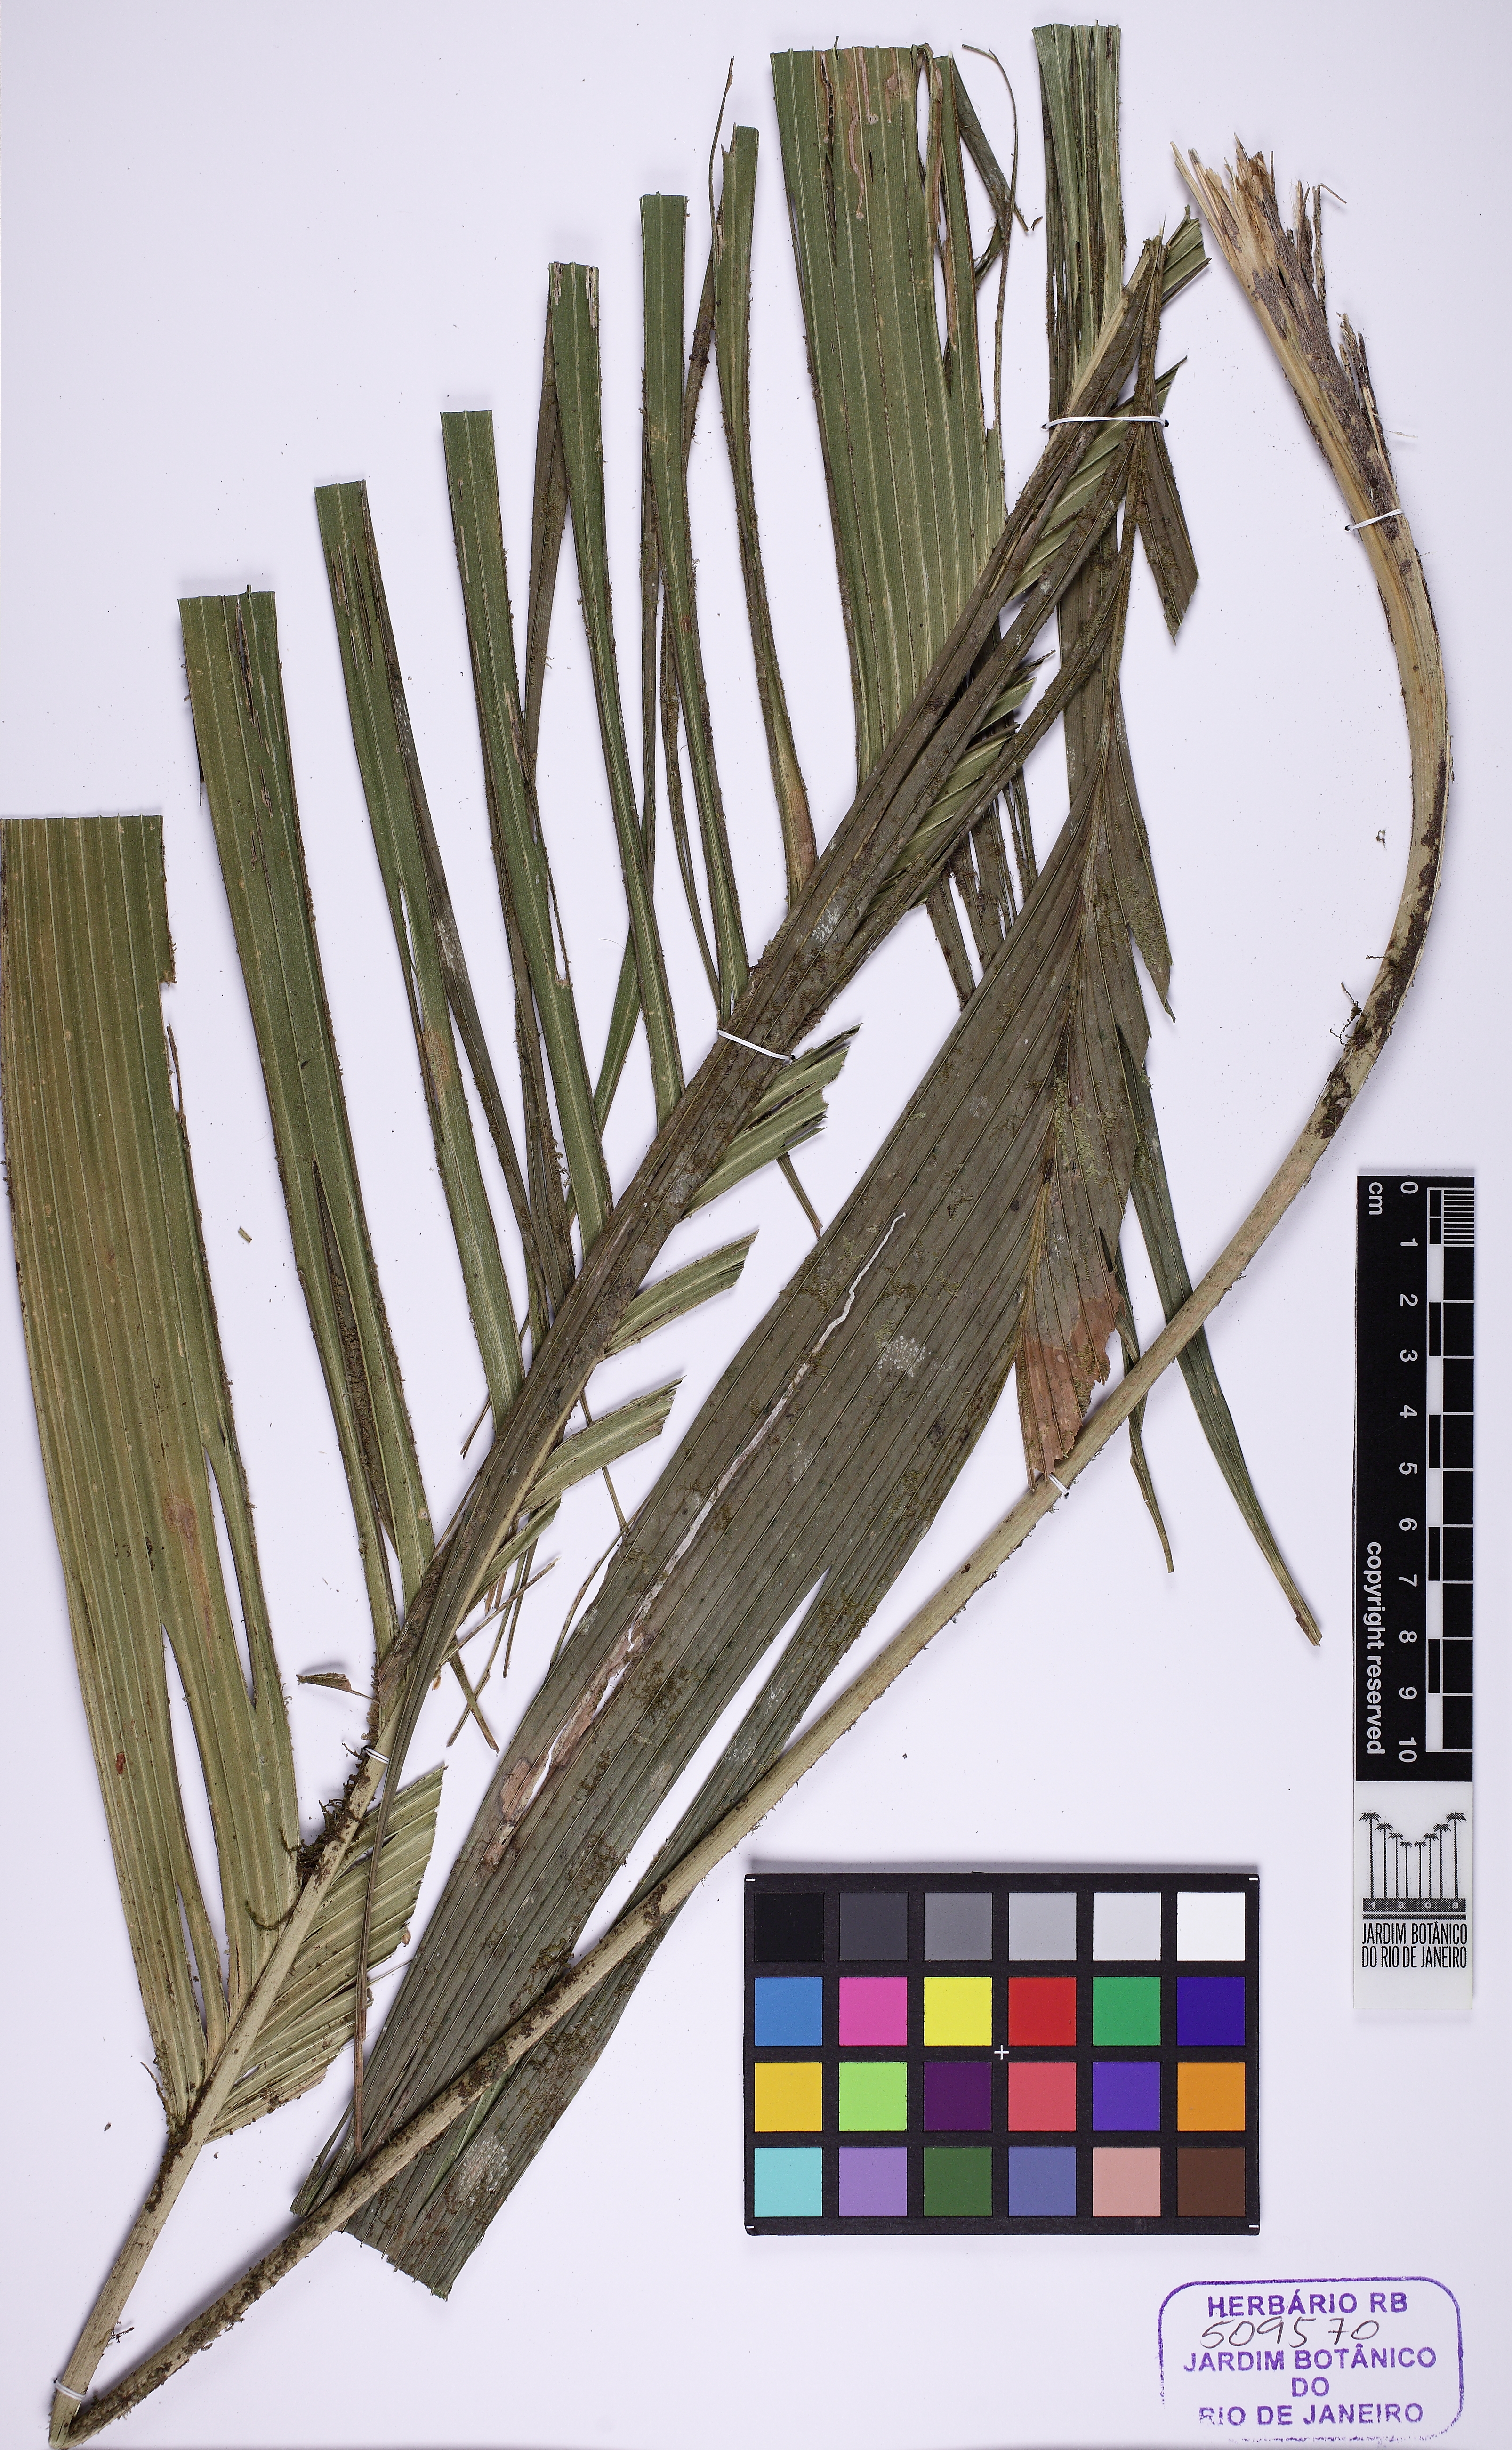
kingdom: Plantae
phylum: Tracheophyta
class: Liliopsida
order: Arecales
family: Arecaceae
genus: Geonoma
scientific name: Geonoma
